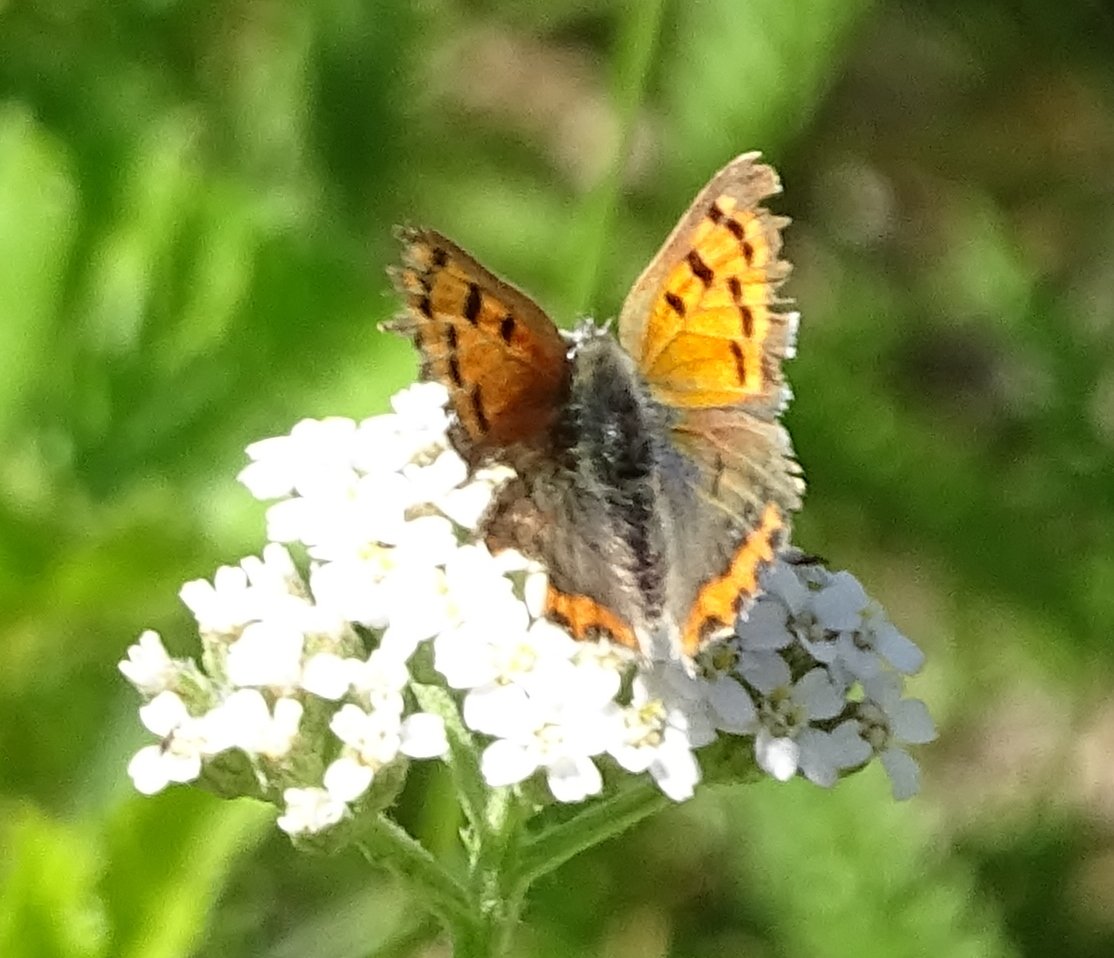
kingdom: Animalia
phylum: Arthropoda
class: Insecta
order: Lepidoptera
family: Lycaenidae
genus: Lycaena
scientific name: Lycaena phlaeas
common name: American Copper
